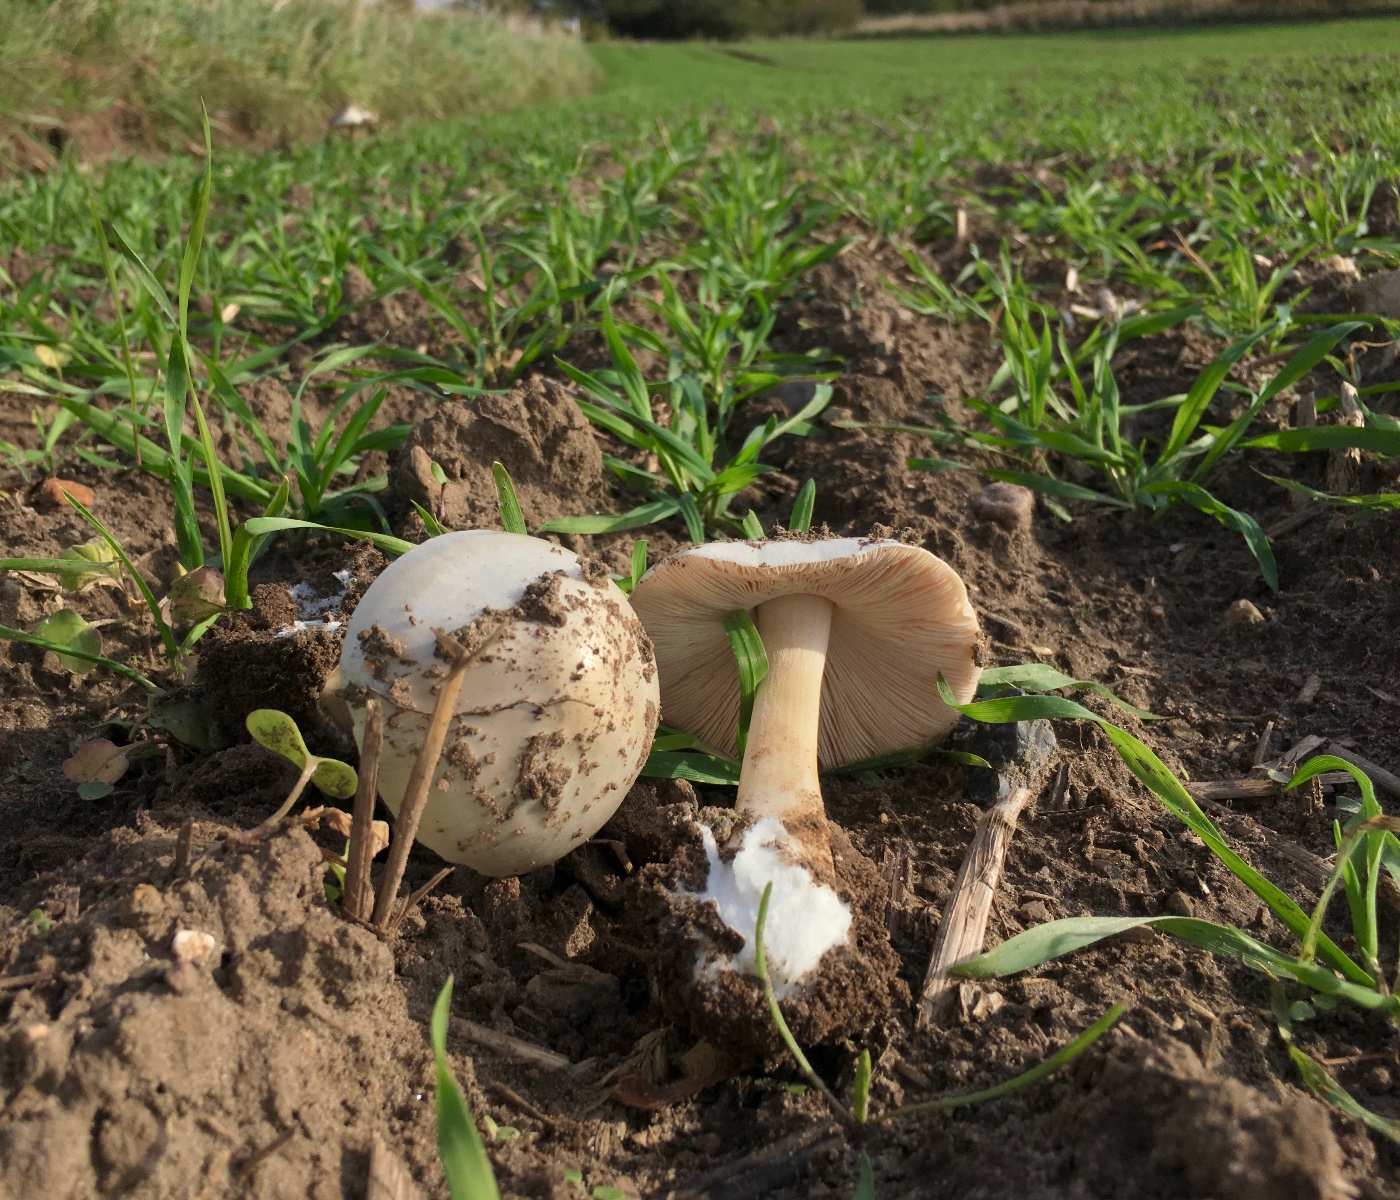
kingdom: Fungi
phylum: Basidiomycota
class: Agaricomycetes
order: Agaricales
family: Pluteaceae
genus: Volvopluteus
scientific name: Volvopluteus gloiocephalus
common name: høj posesvamp
